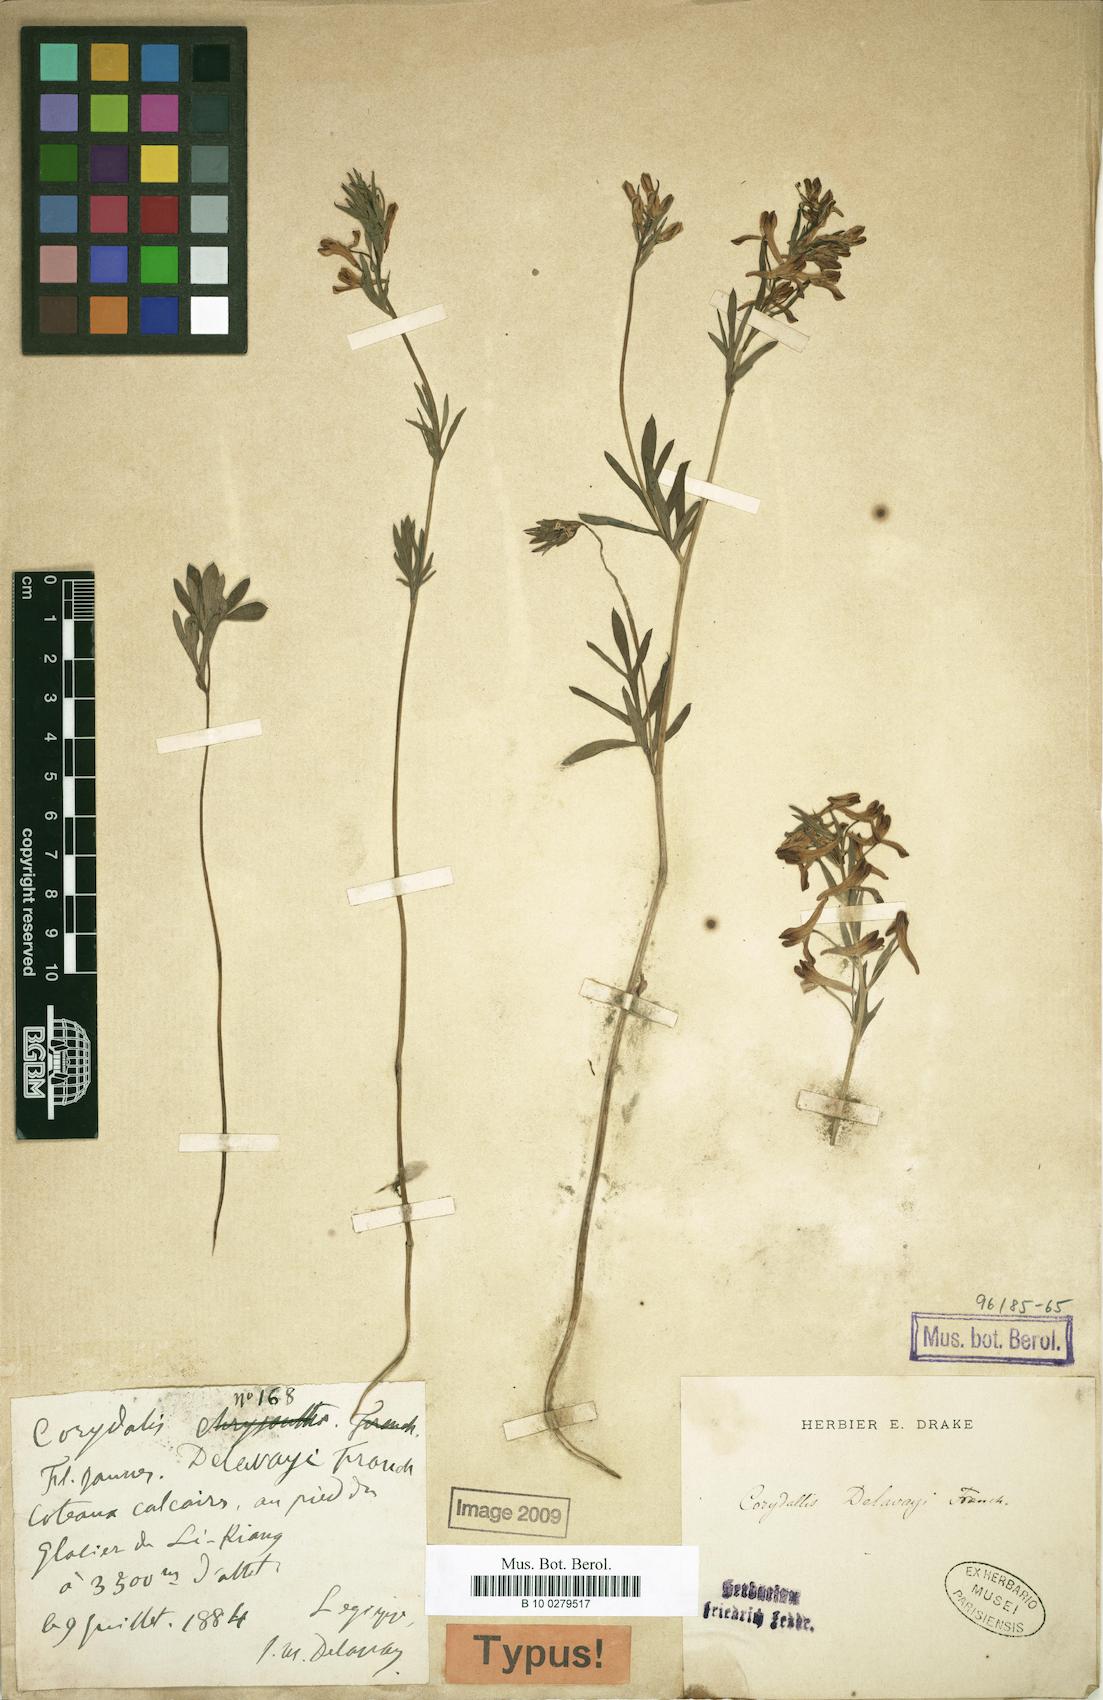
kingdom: Plantae
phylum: Tracheophyta
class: Magnoliopsida
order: Ranunculales
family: Papaveraceae
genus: Corydalis
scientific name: Corydalis delavayi
